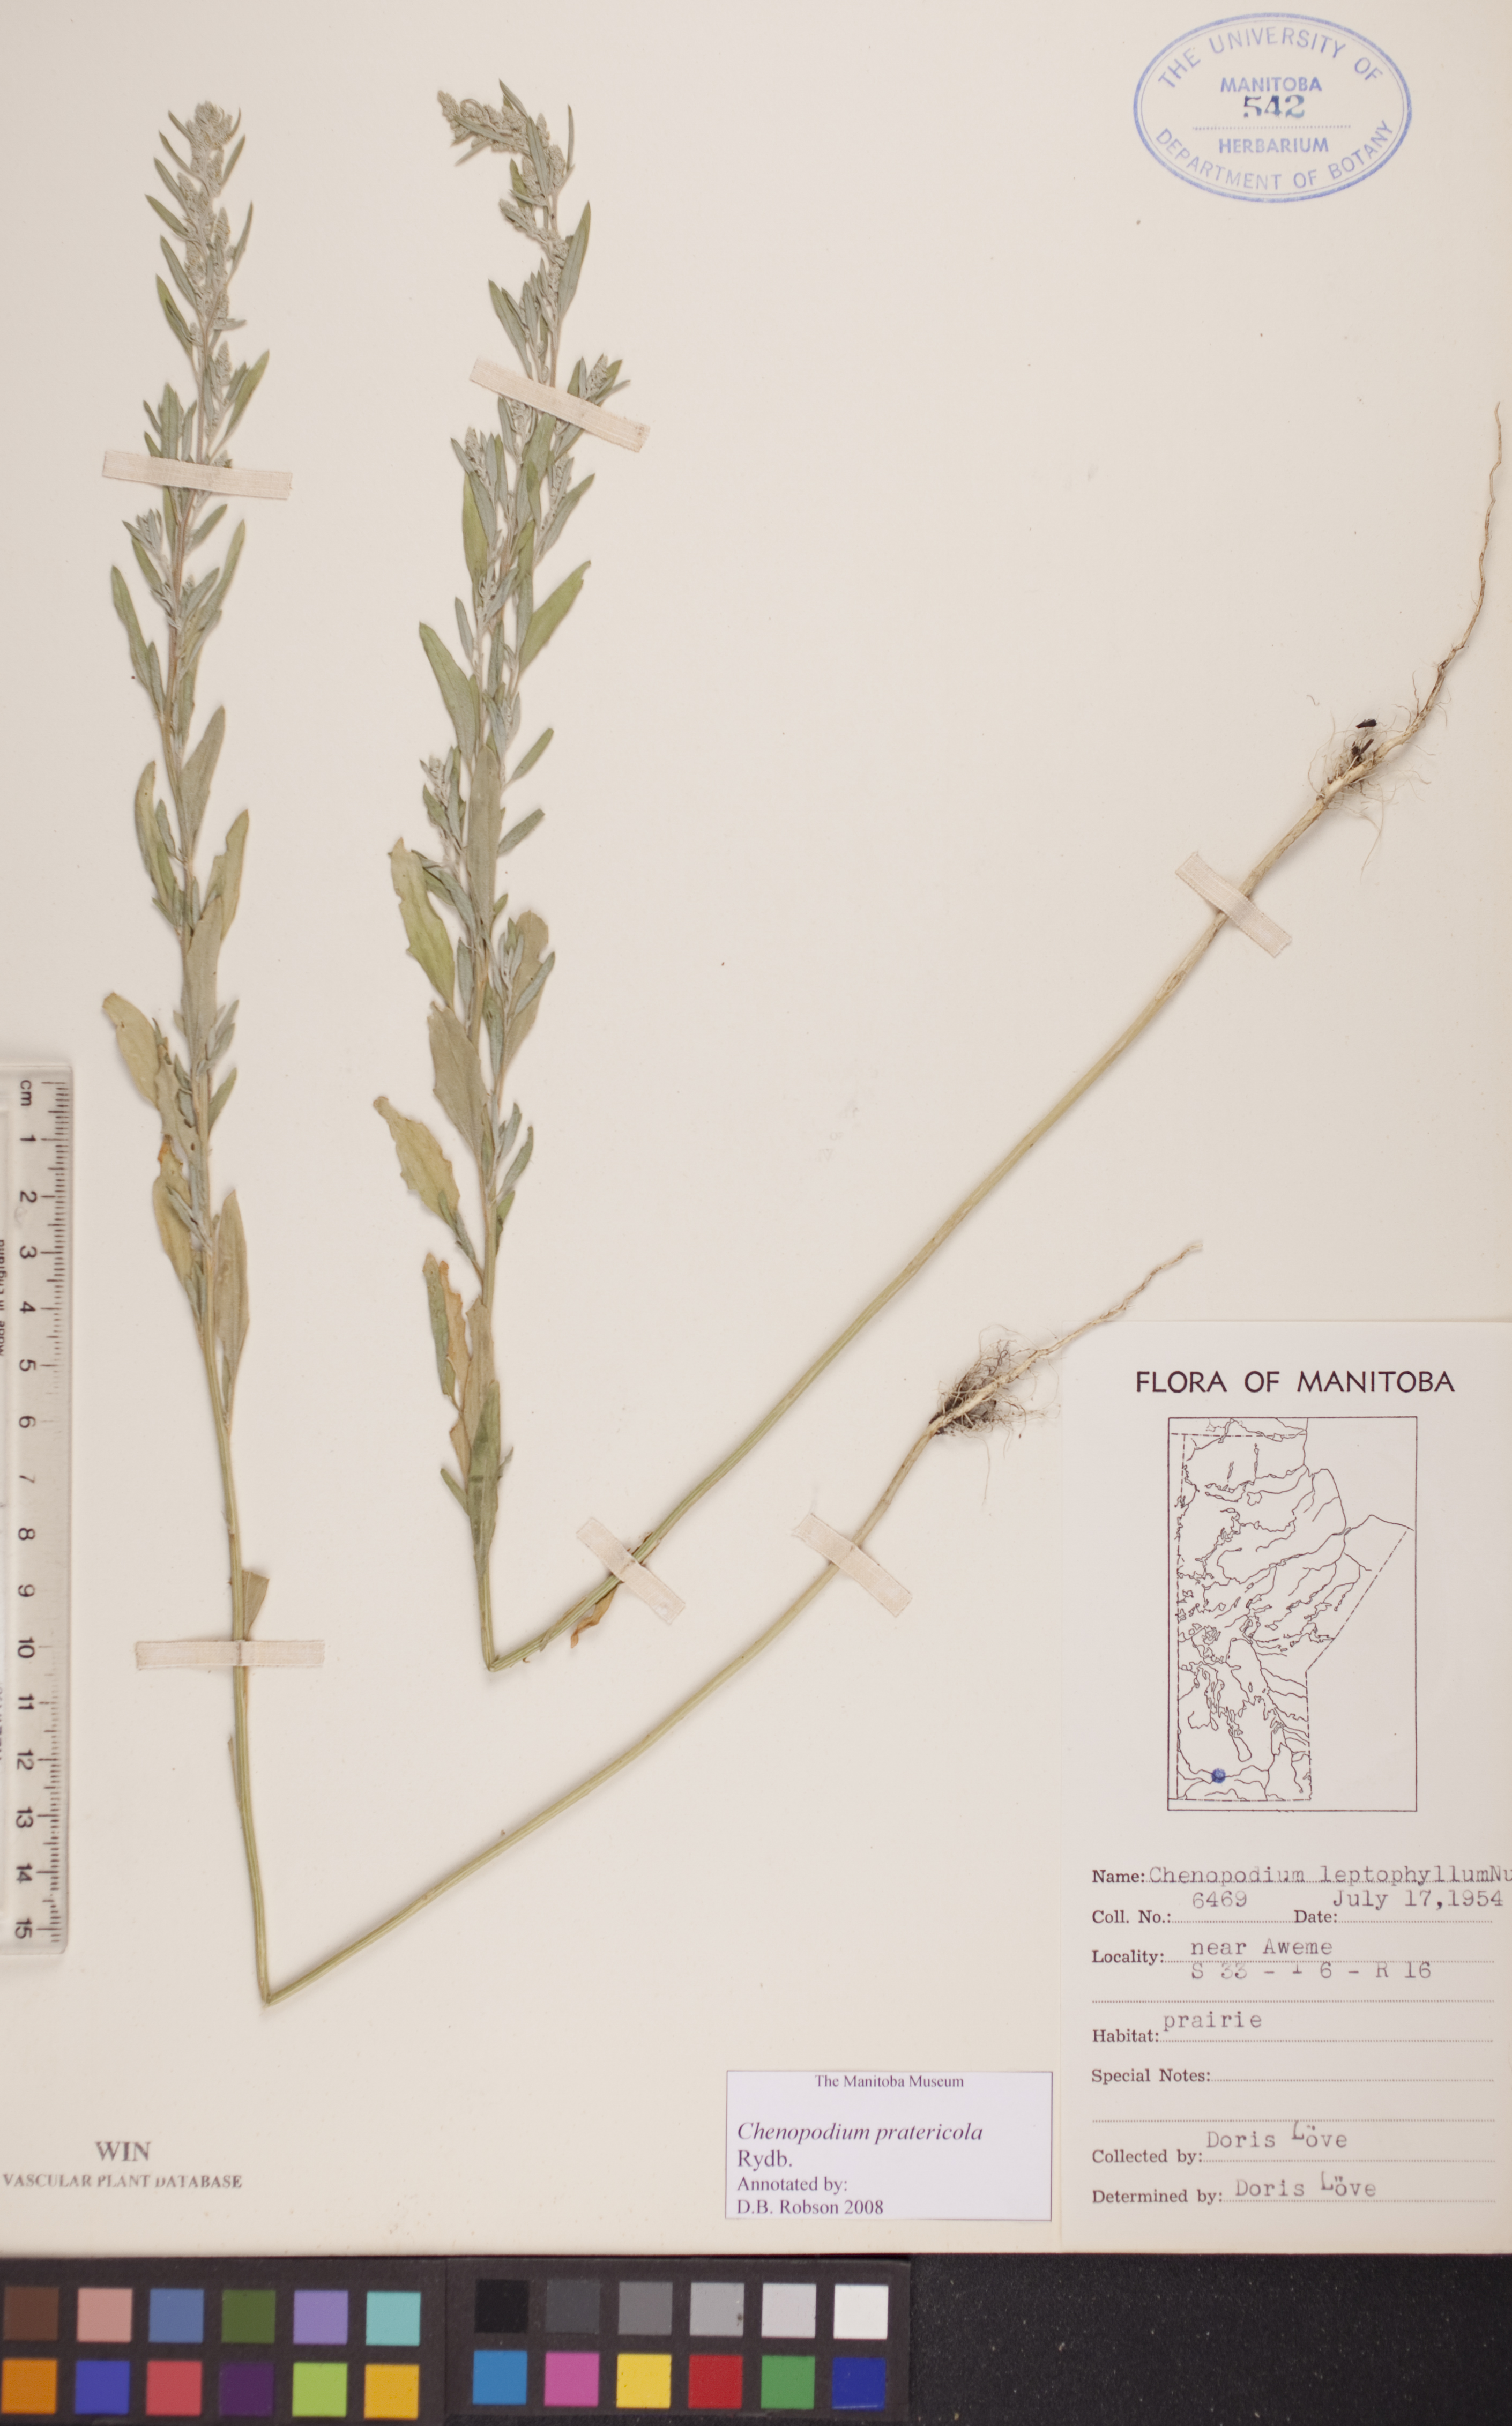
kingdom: Plantae
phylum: Tracheophyta
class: Magnoliopsida
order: Caryophyllales
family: Amaranthaceae
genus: Chenopodium
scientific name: Chenopodium pratericola
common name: Desert goosefoot
